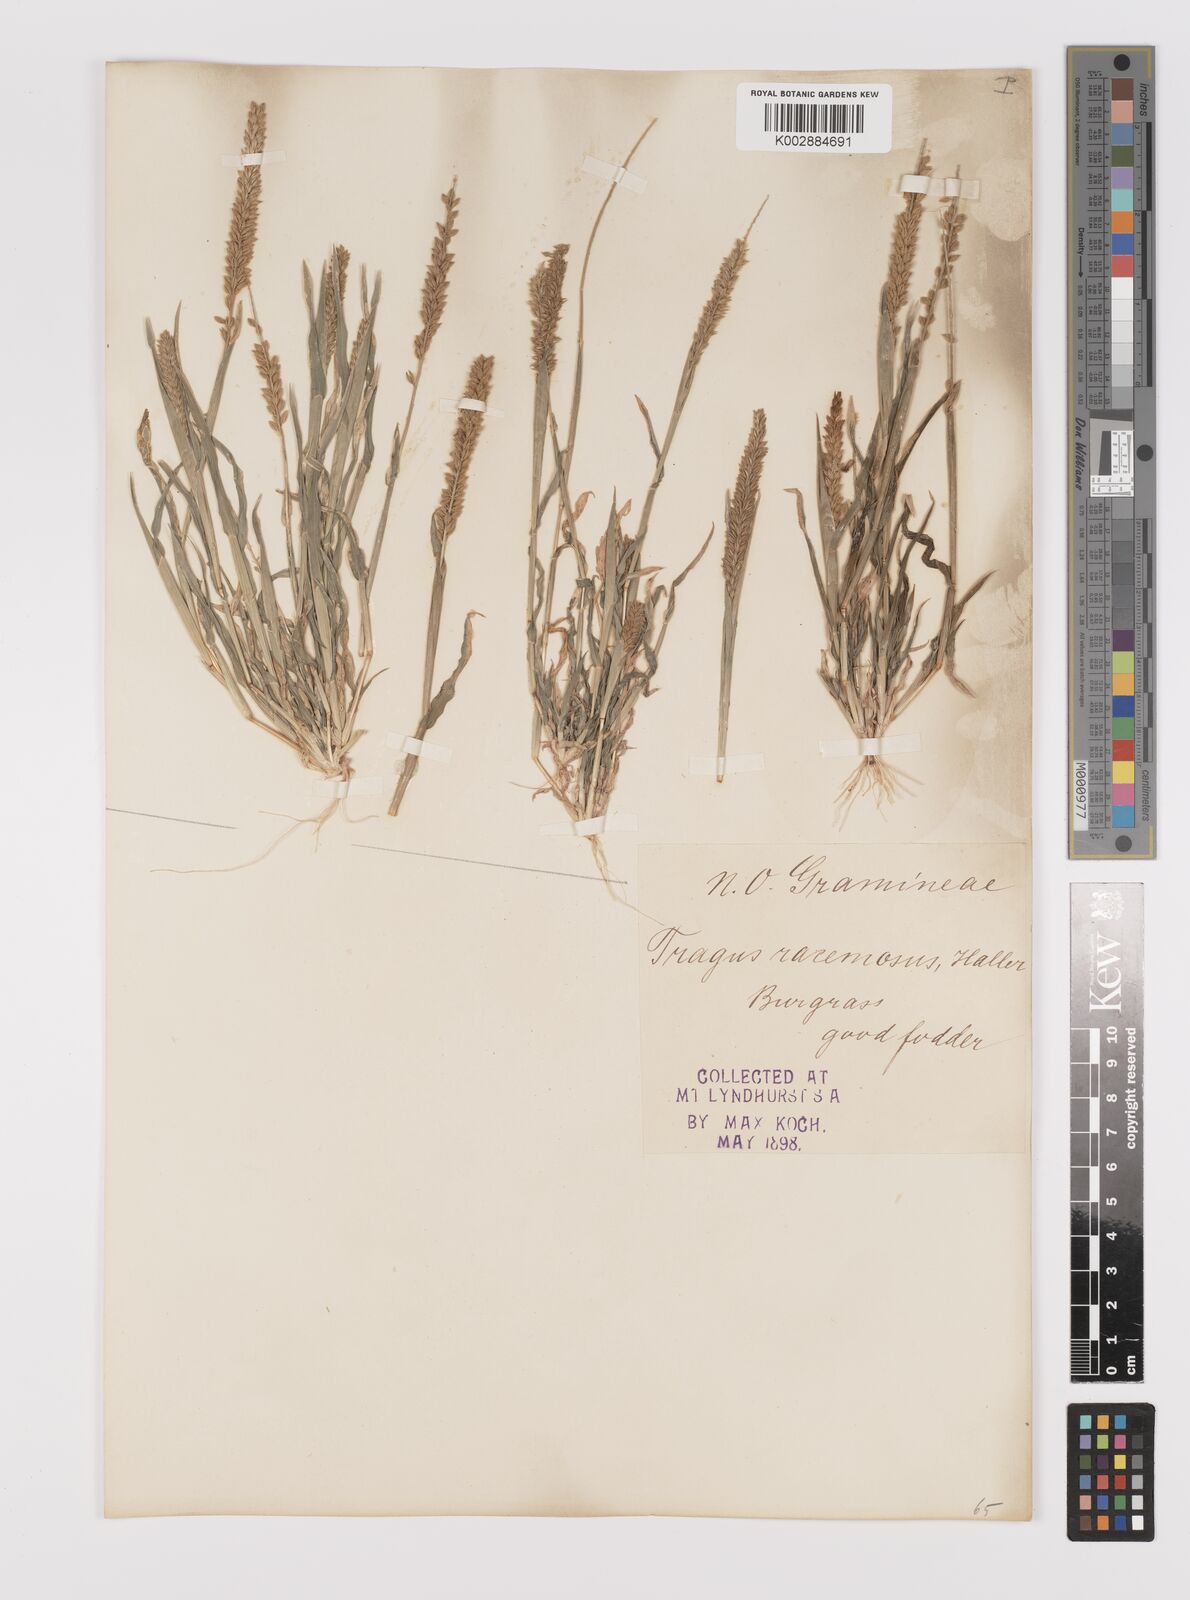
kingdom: Plantae
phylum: Tracheophyta
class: Liliopsida
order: Poales
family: Poaceae
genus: Tragus
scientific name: Tragus australianus
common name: Australian bur-grass
